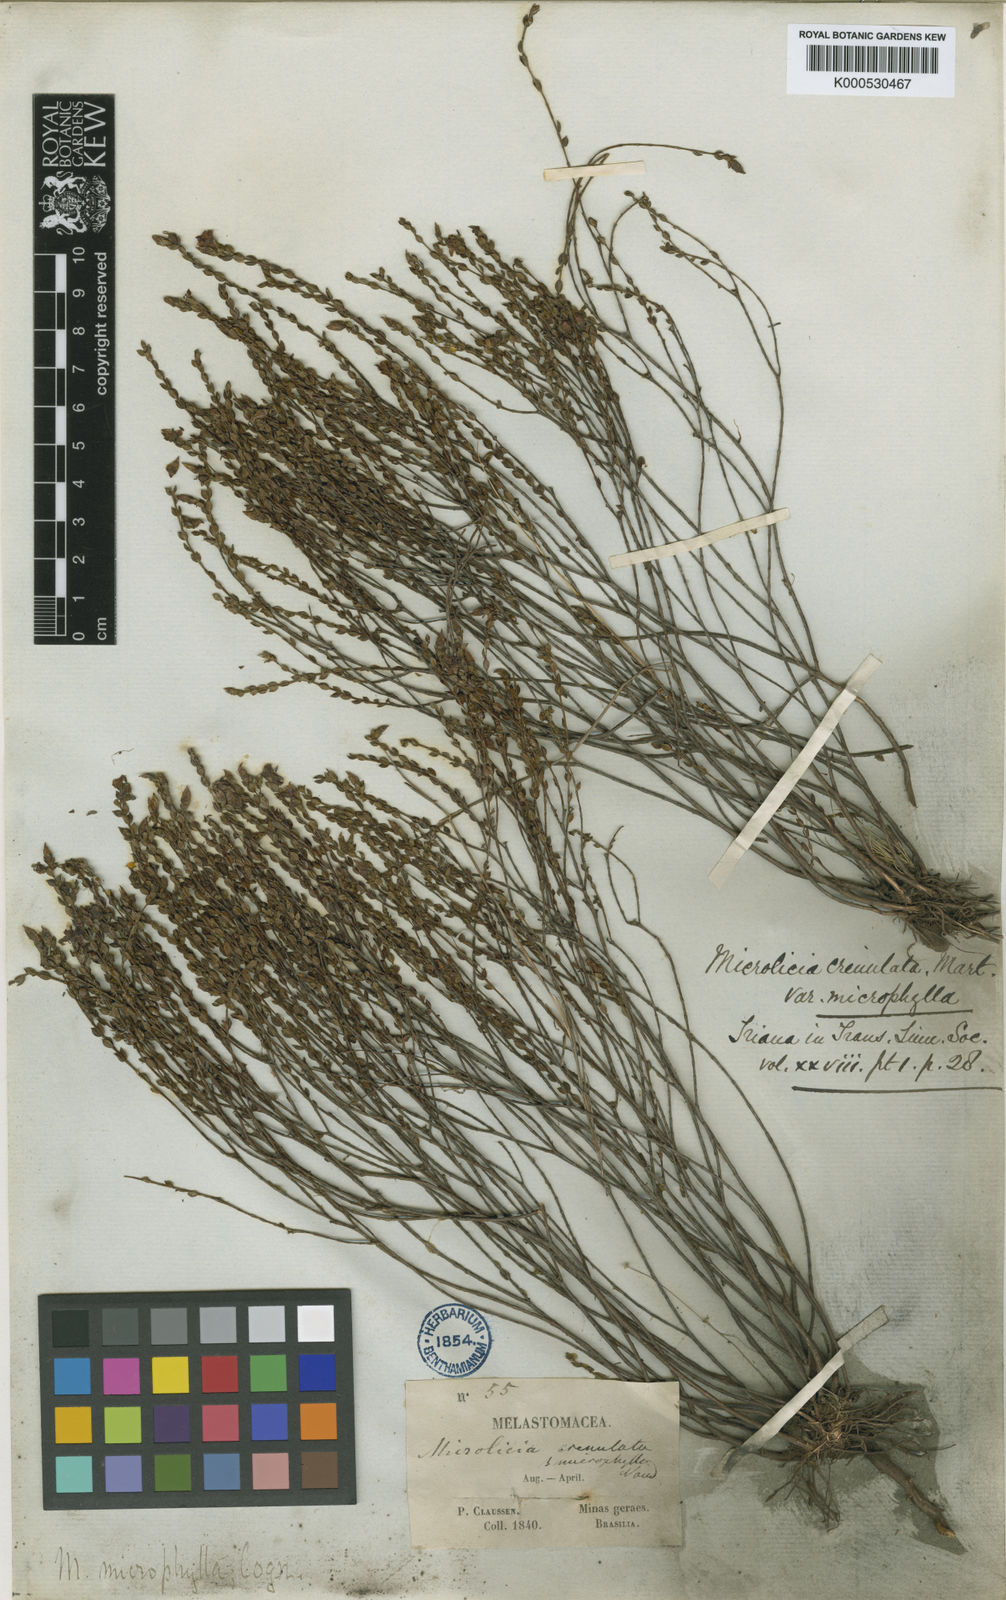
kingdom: Plantae
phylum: Tracheophyta
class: Magnoliopsida
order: Myrtales
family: Melastomataceae
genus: Microlicia
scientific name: Microlicia microphylla
